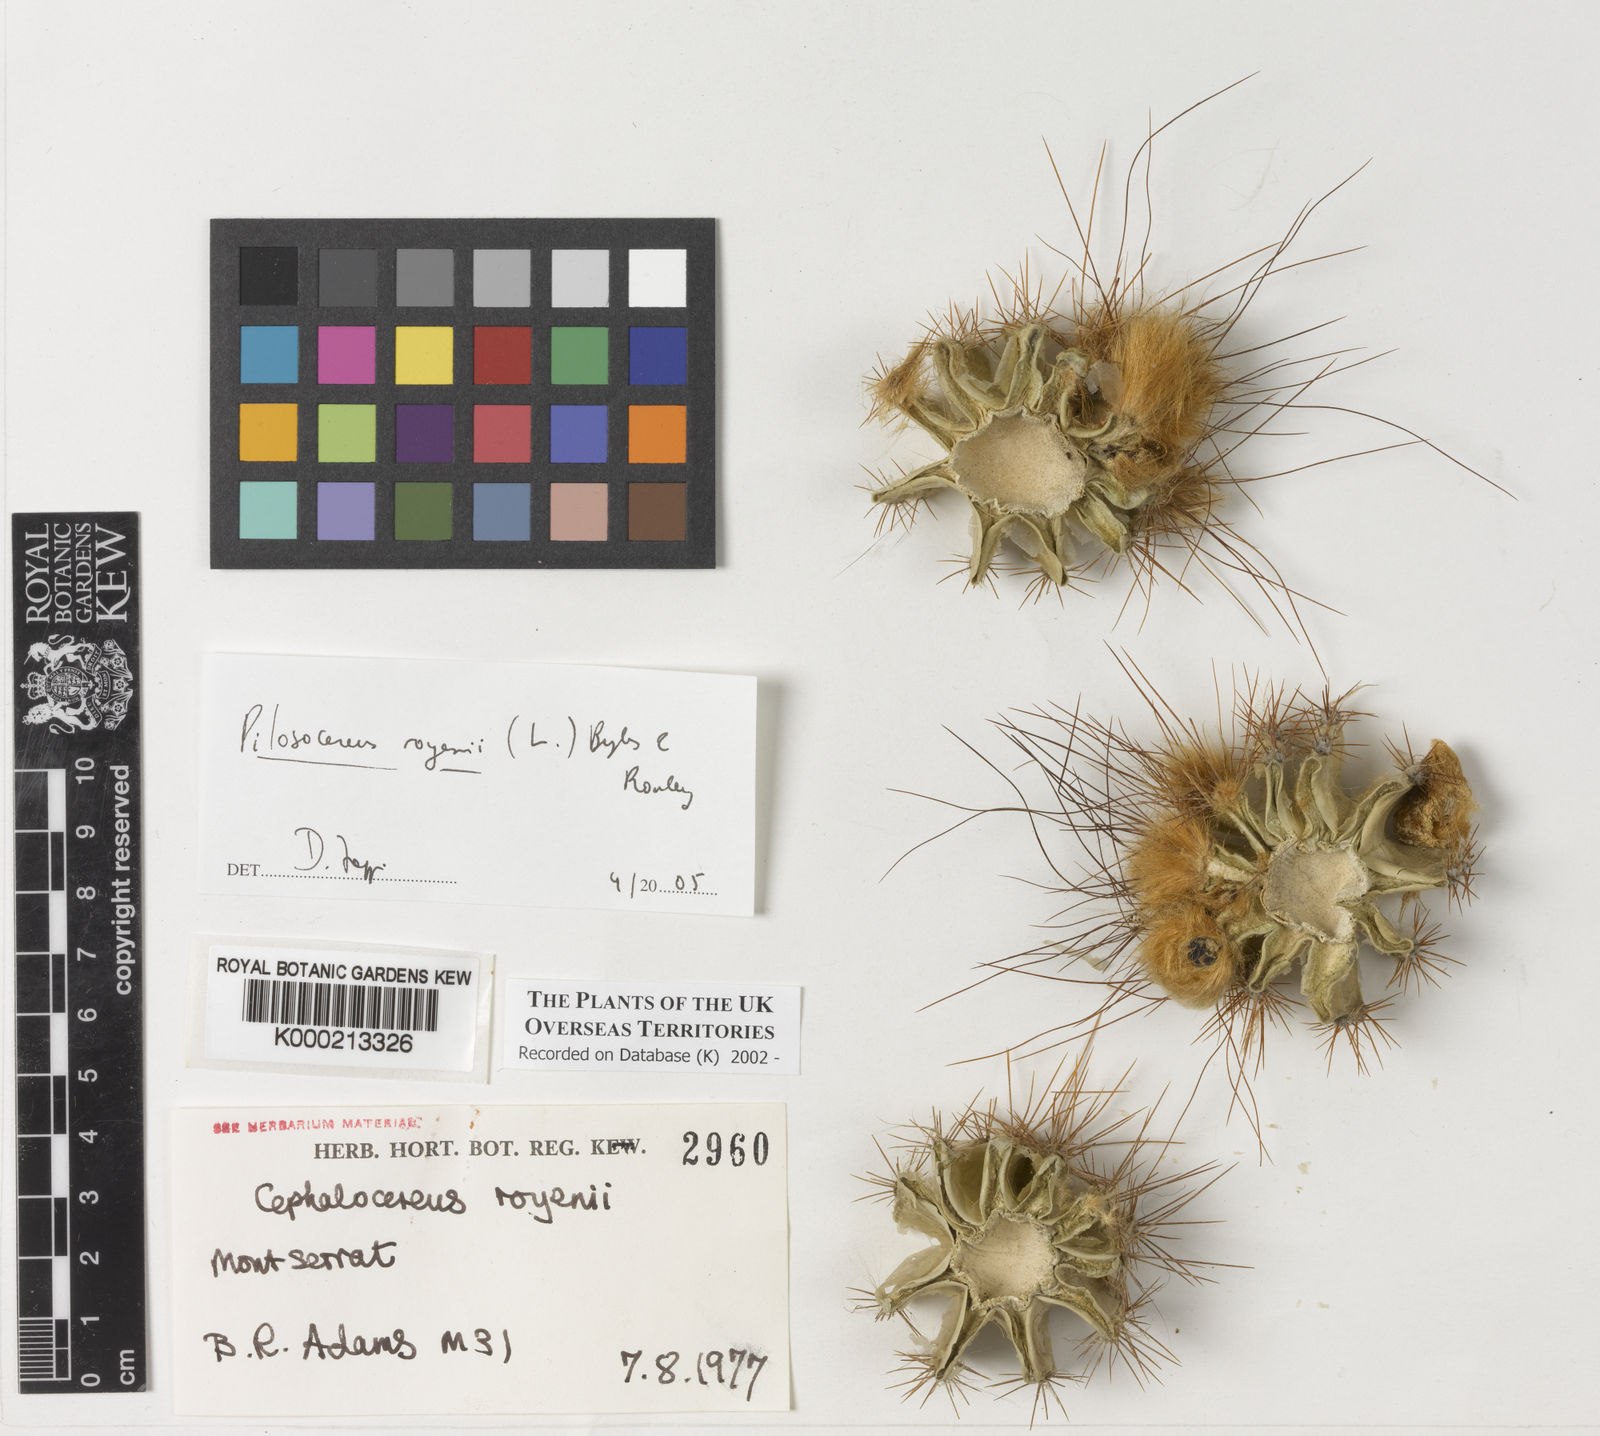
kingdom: Plantae
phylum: Tracheophyta
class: Magnoliopsida
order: Caryophyllales
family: Cactaceae
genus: Pilosocereus
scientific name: Pilosocereus polygonus
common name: Key tree cactus
